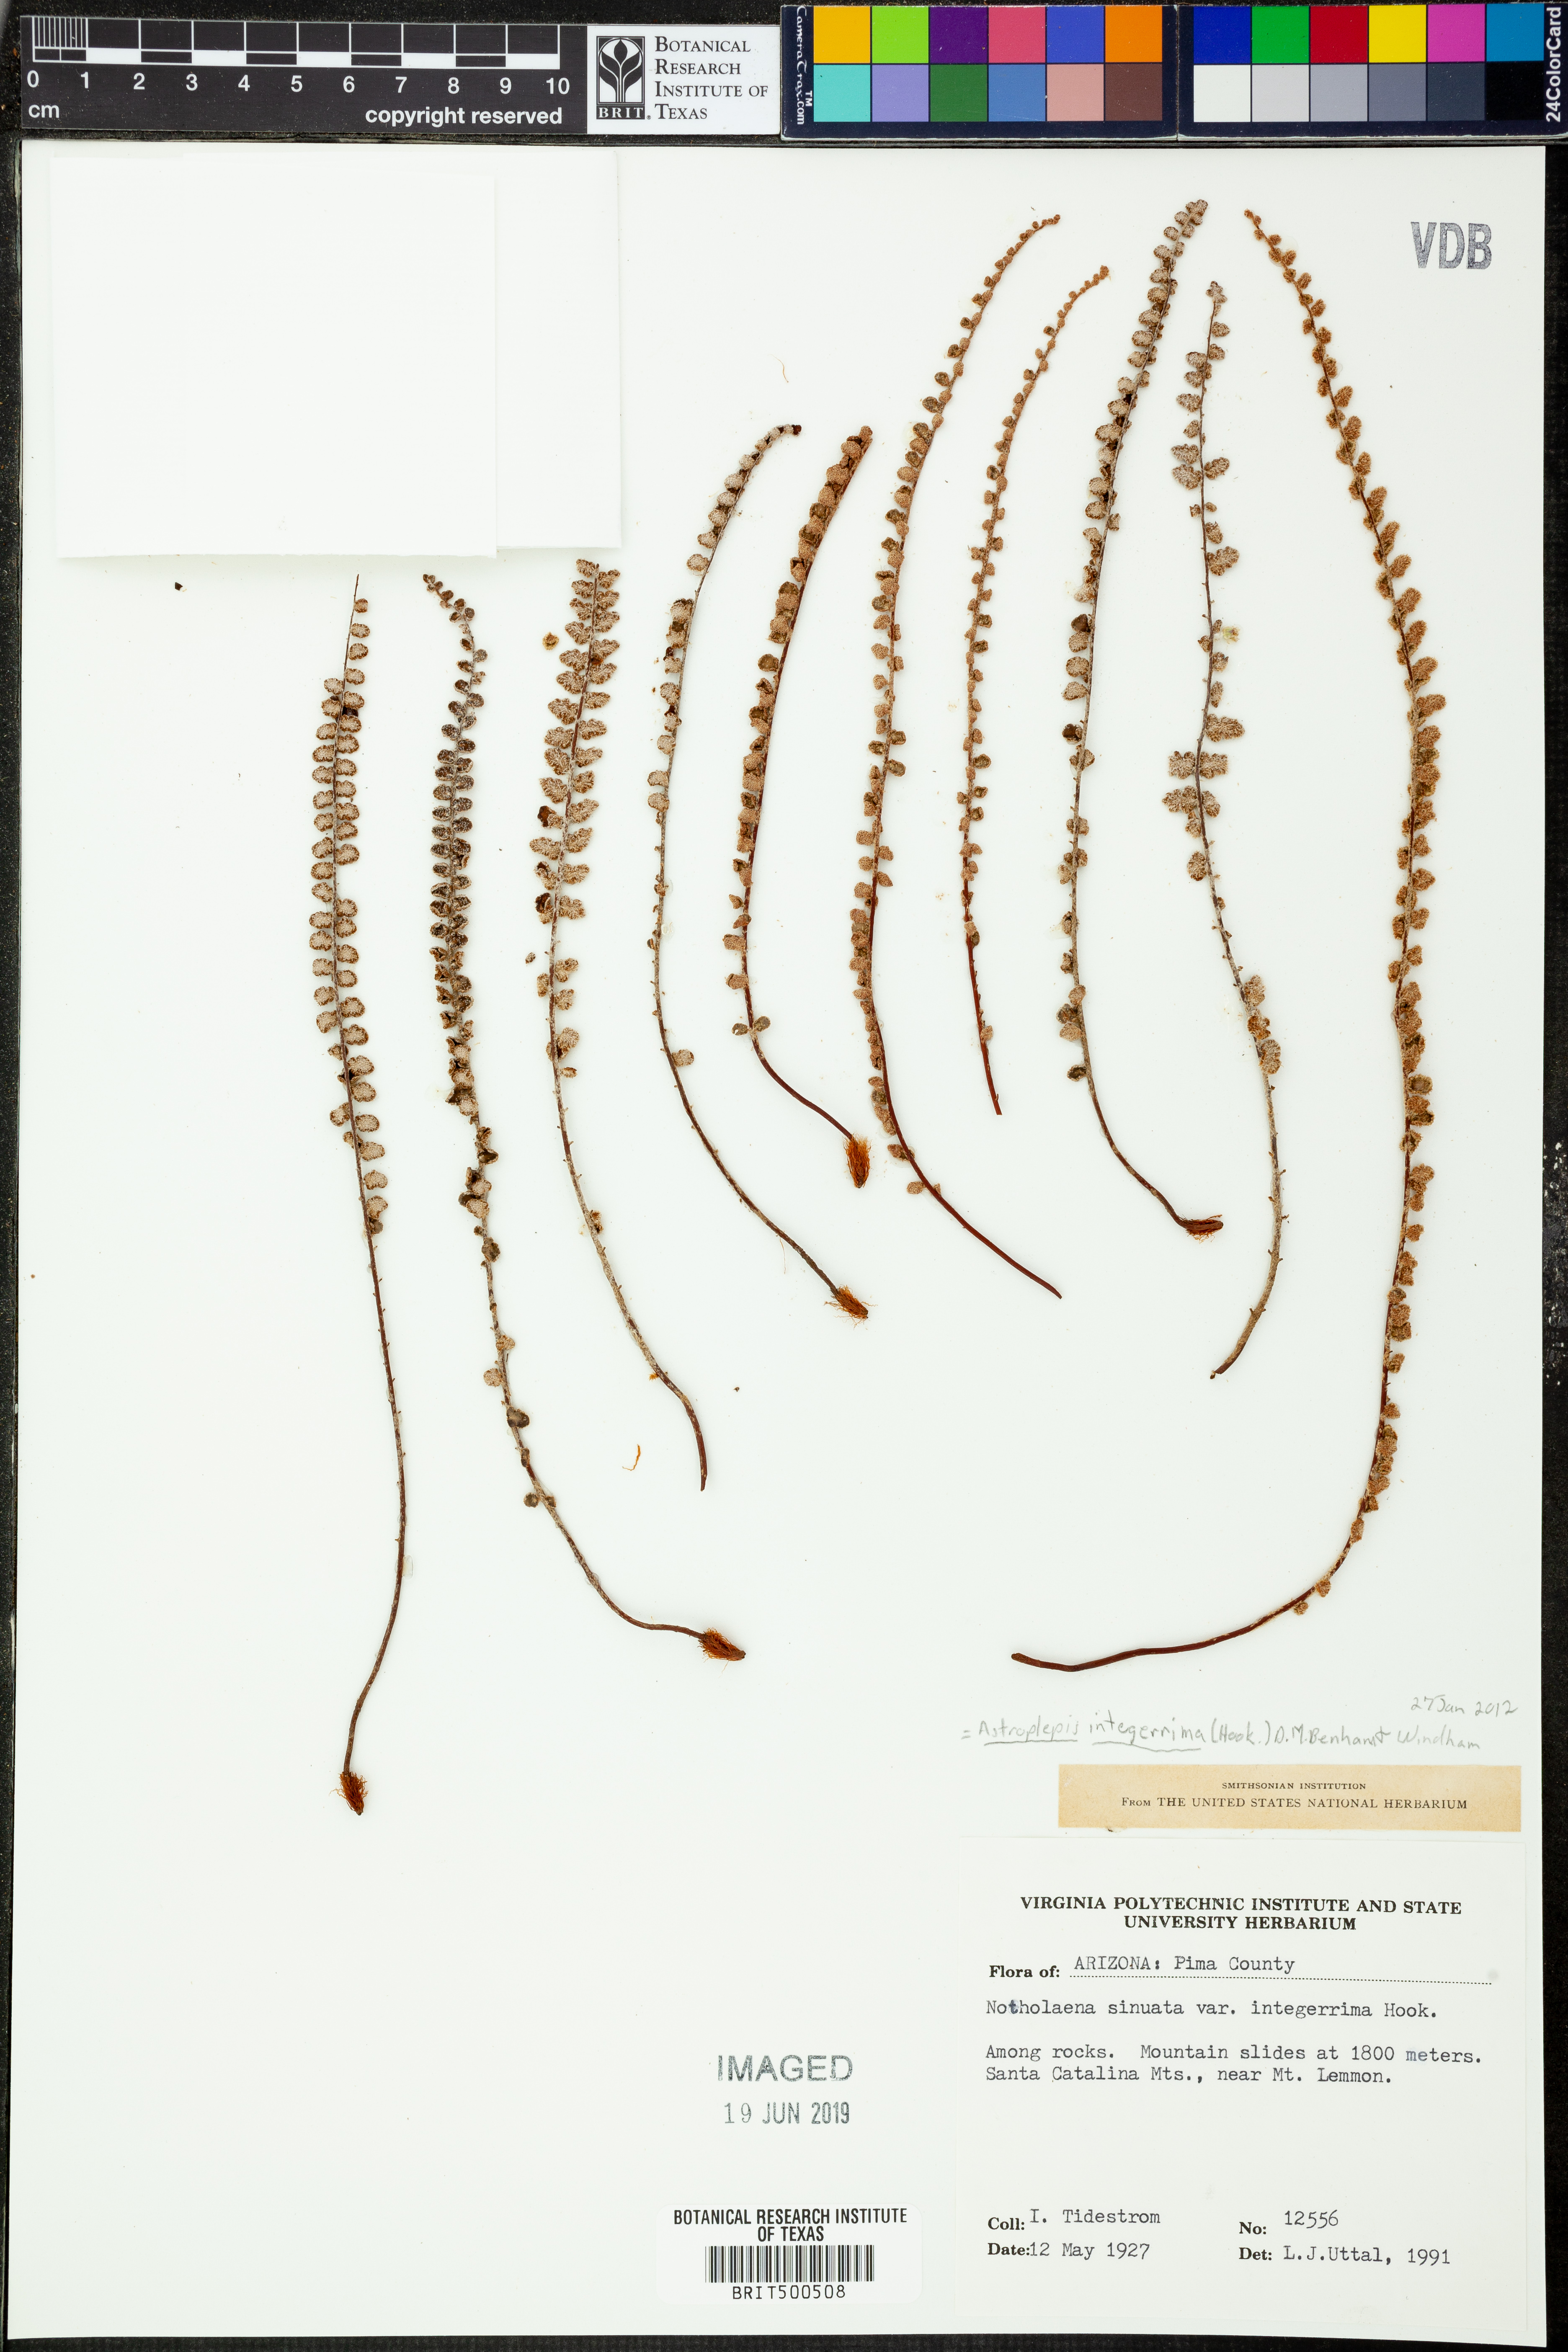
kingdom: Plantae
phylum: Tracheophyta
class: Polypodiopsida
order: Polypodiales
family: Pteridaceae
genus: Astrolepis
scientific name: Astrolepis integerrima
